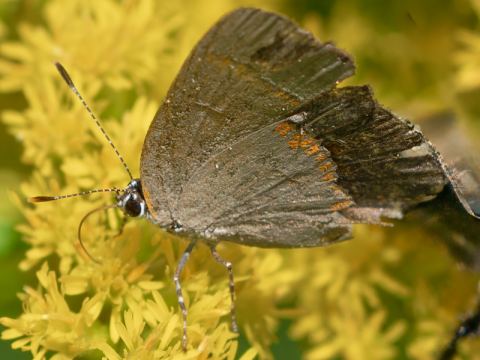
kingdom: Animalia
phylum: Arthropoda
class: Insecta
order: Lepidoptera
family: Lycaenidae
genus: Calycopis
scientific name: Calycopis cecrops
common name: Red-banded Hairstreak
